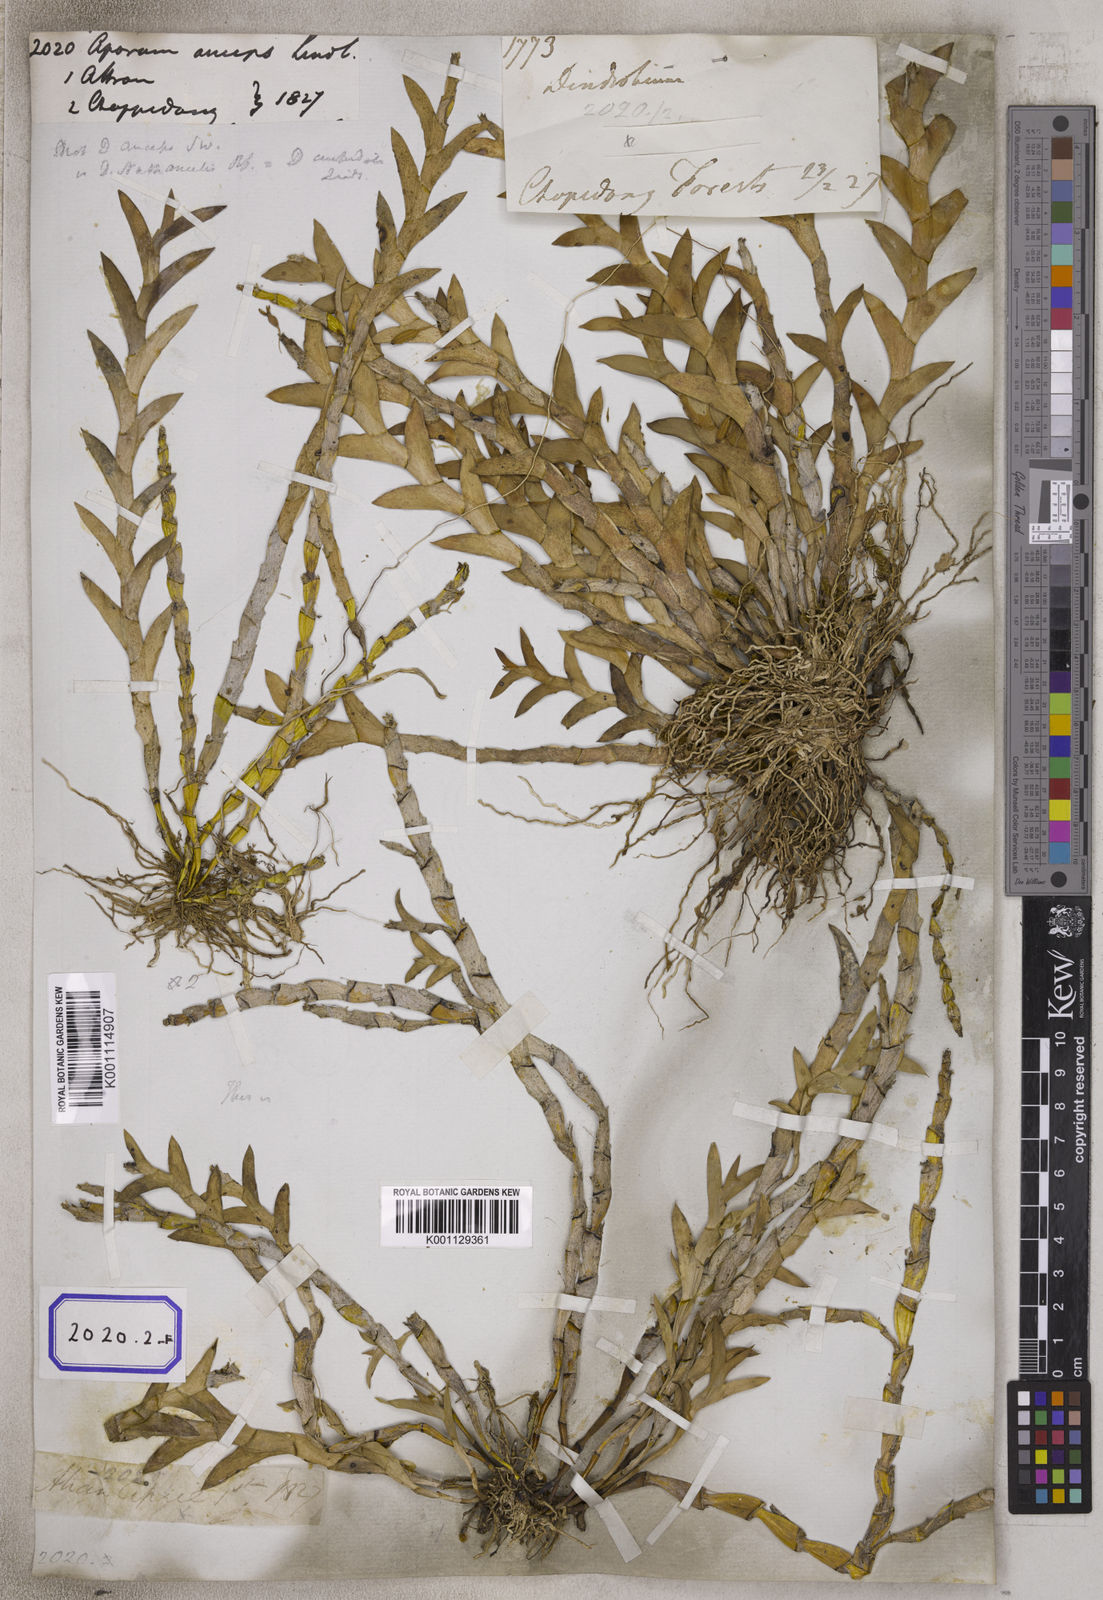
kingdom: Plantae
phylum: Tracheophyta
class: Liliopsida
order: Asparagales
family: Orchidaceae
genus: Dendrobium
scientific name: Dendrobium anceps
